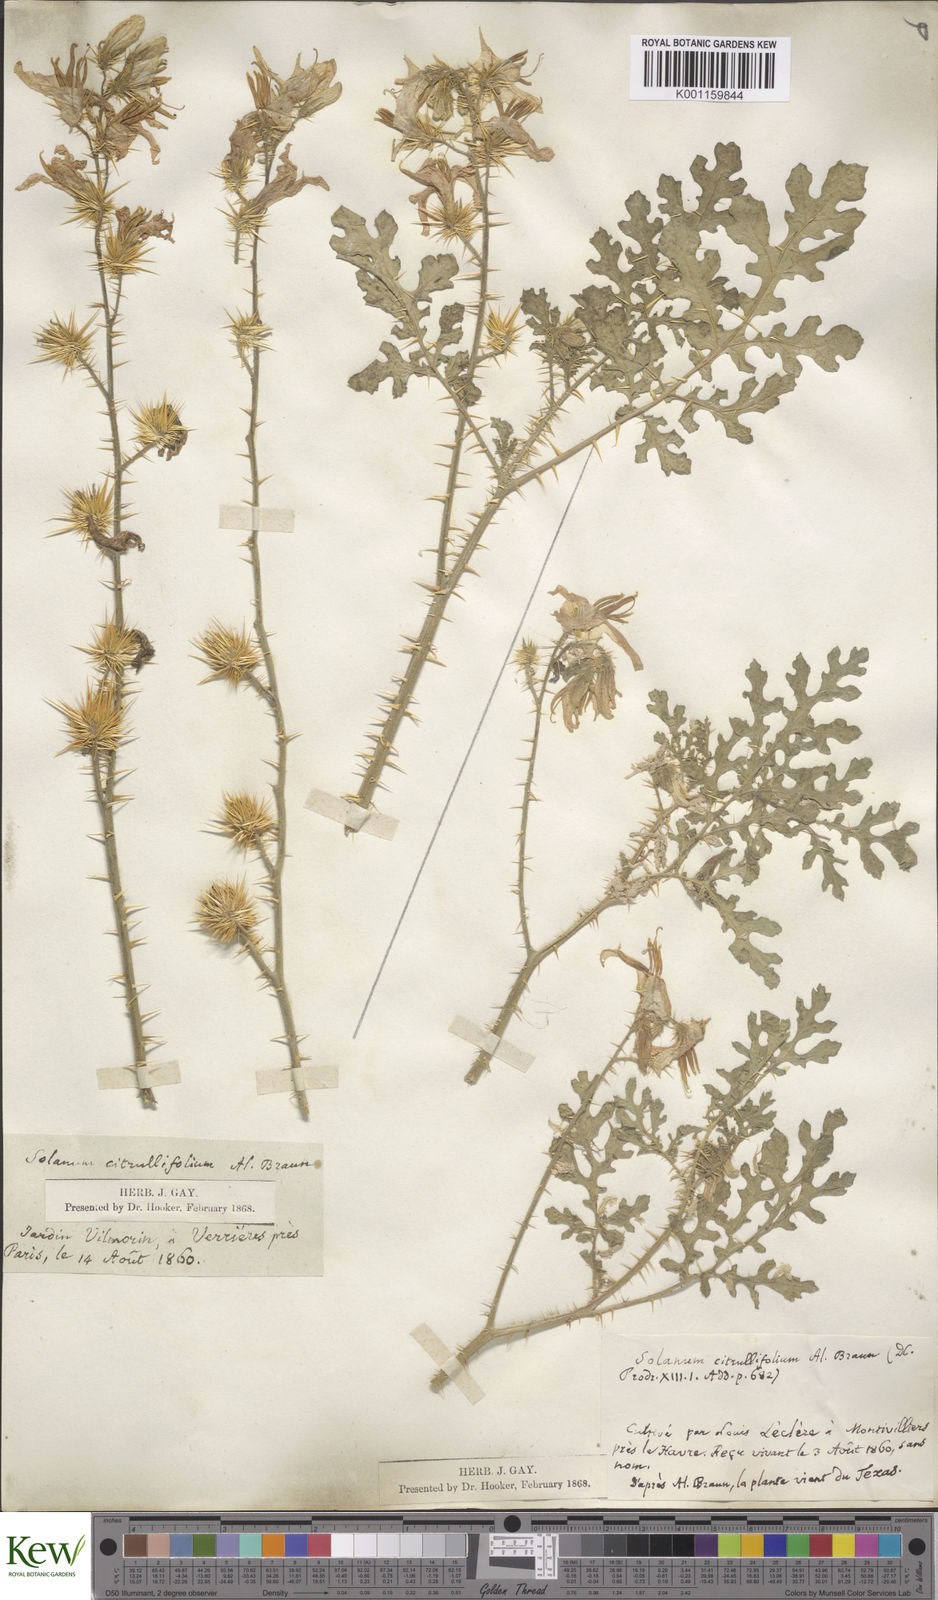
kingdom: Plantae
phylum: Tracheophyta
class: Magnoliopsida
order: Solanales
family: Solanaceae
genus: Solanum
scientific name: Solanum heterodoxum
